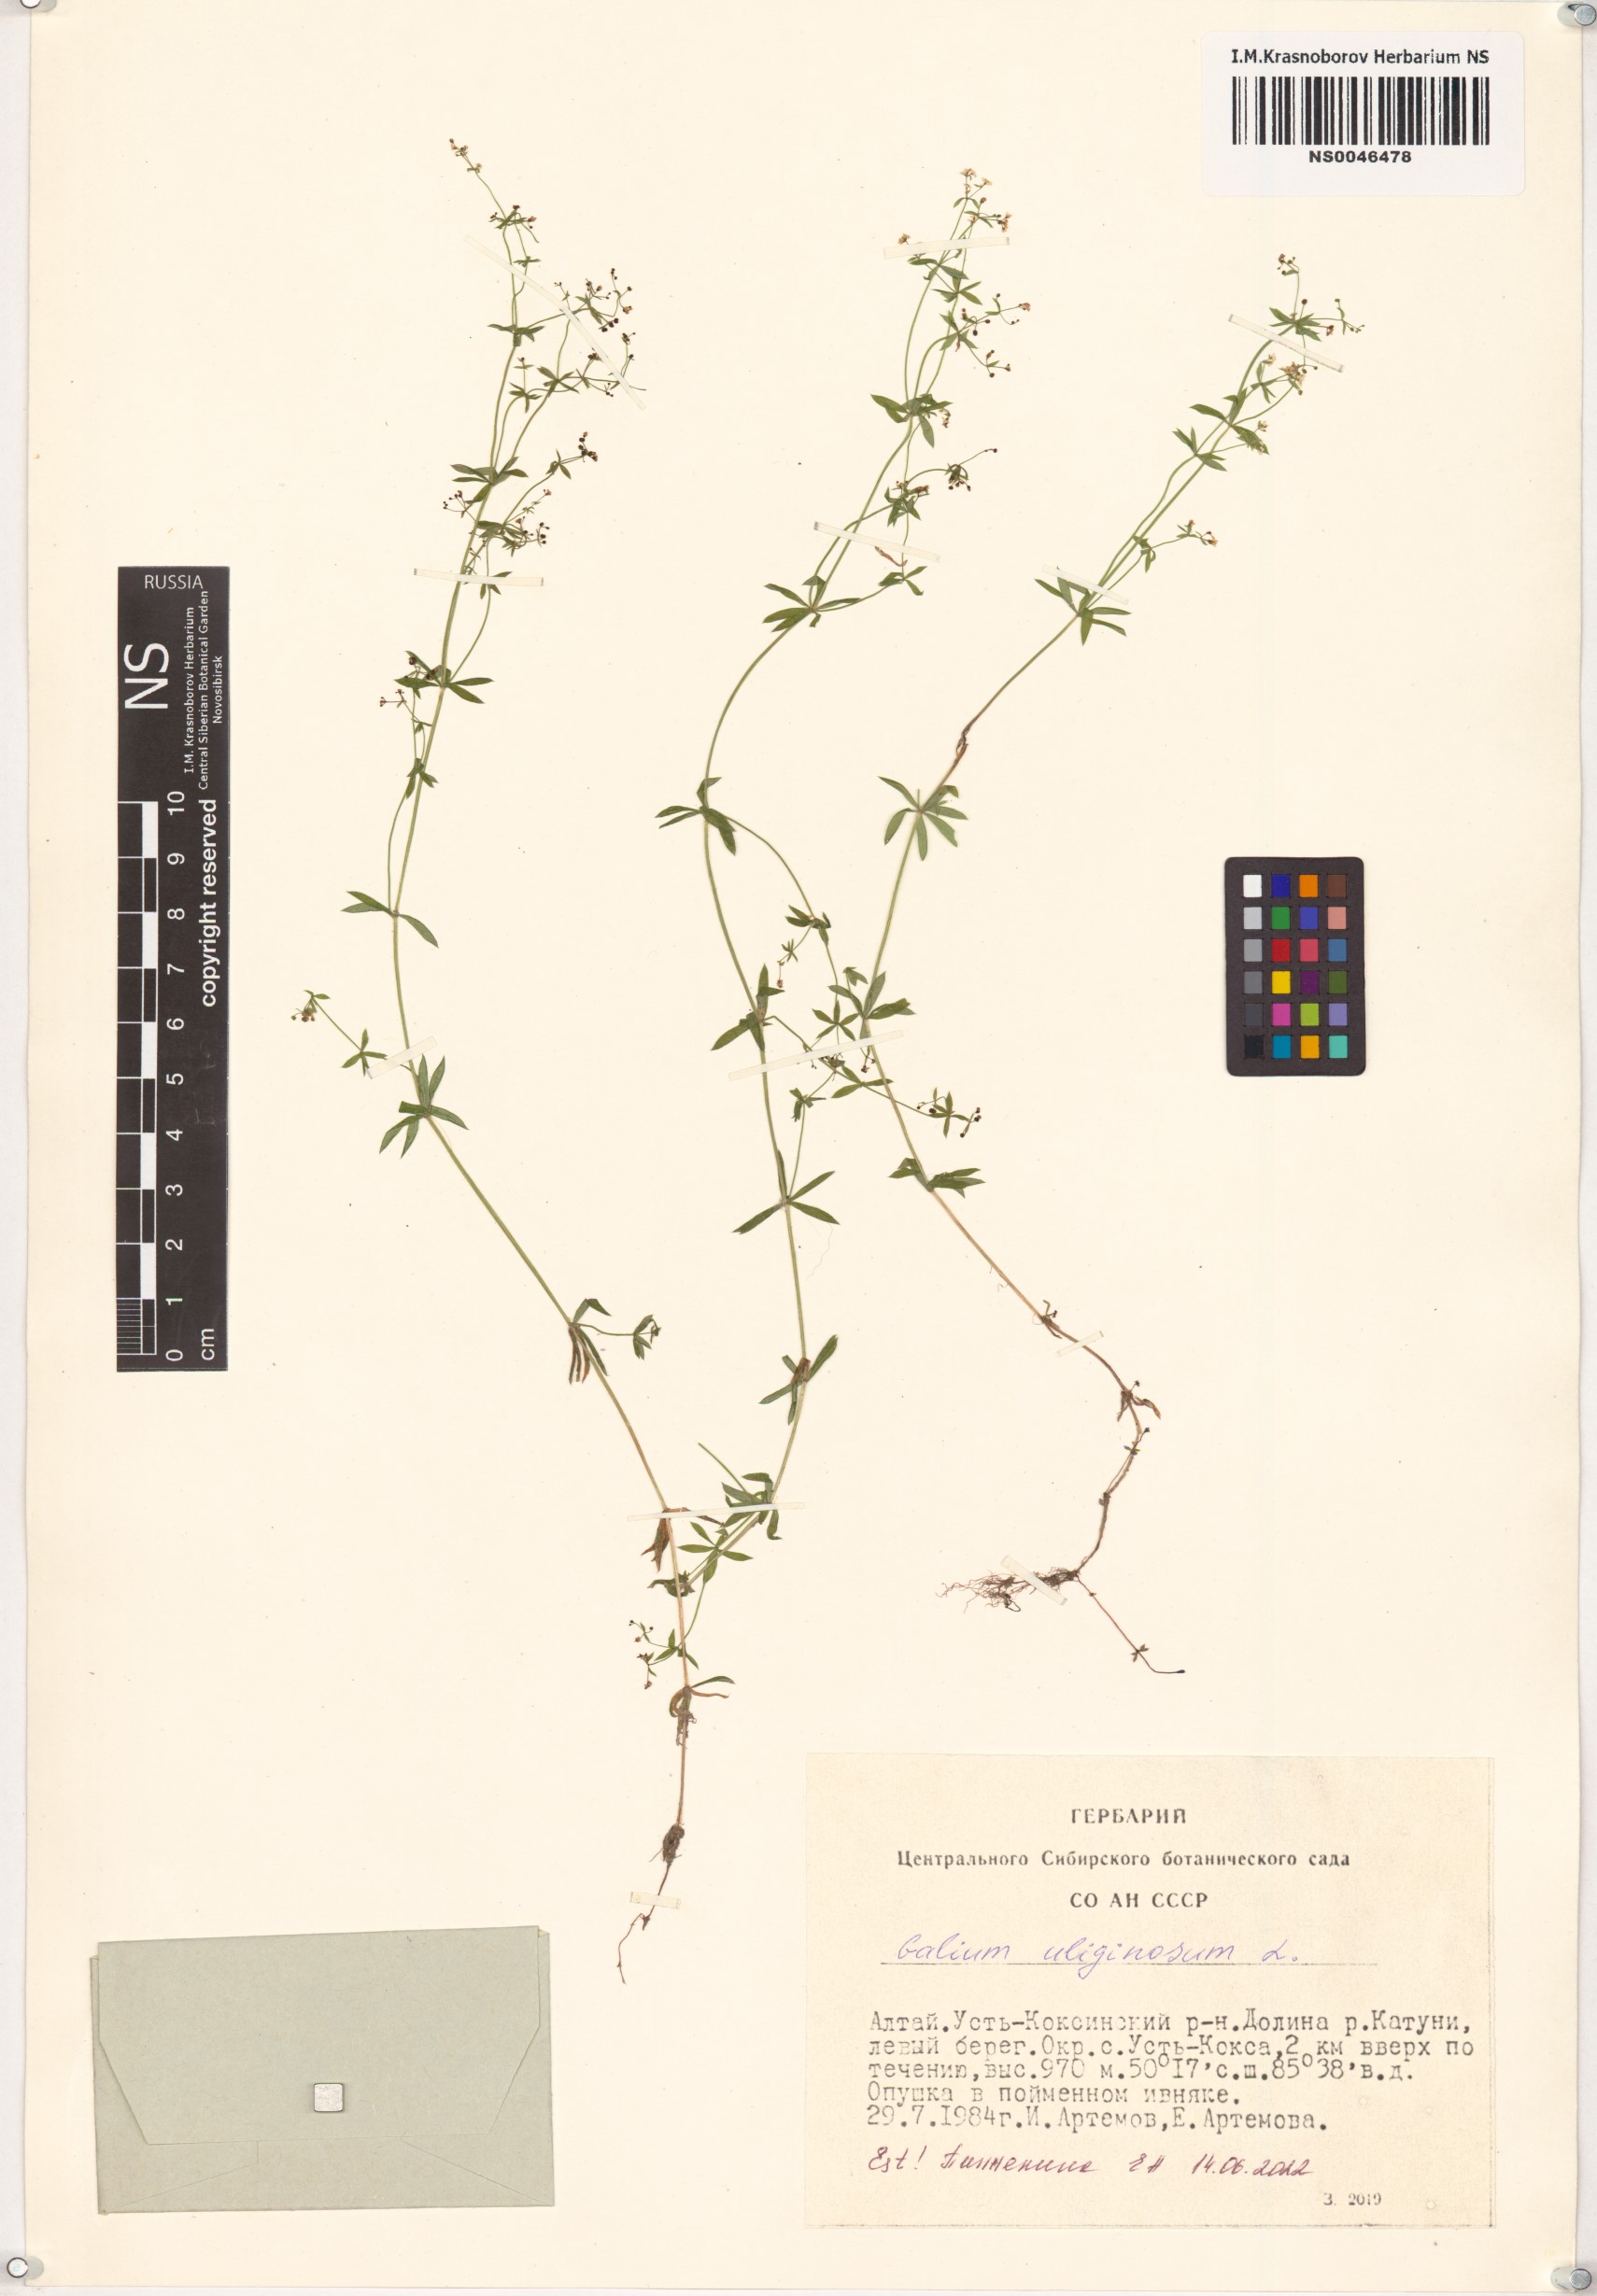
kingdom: Plantae
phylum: Tracheophyta
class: Magnoliopsida
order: Gentianales
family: Rubiaceae
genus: Galium
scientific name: Galium uliginosum
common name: Fen bedstraw
